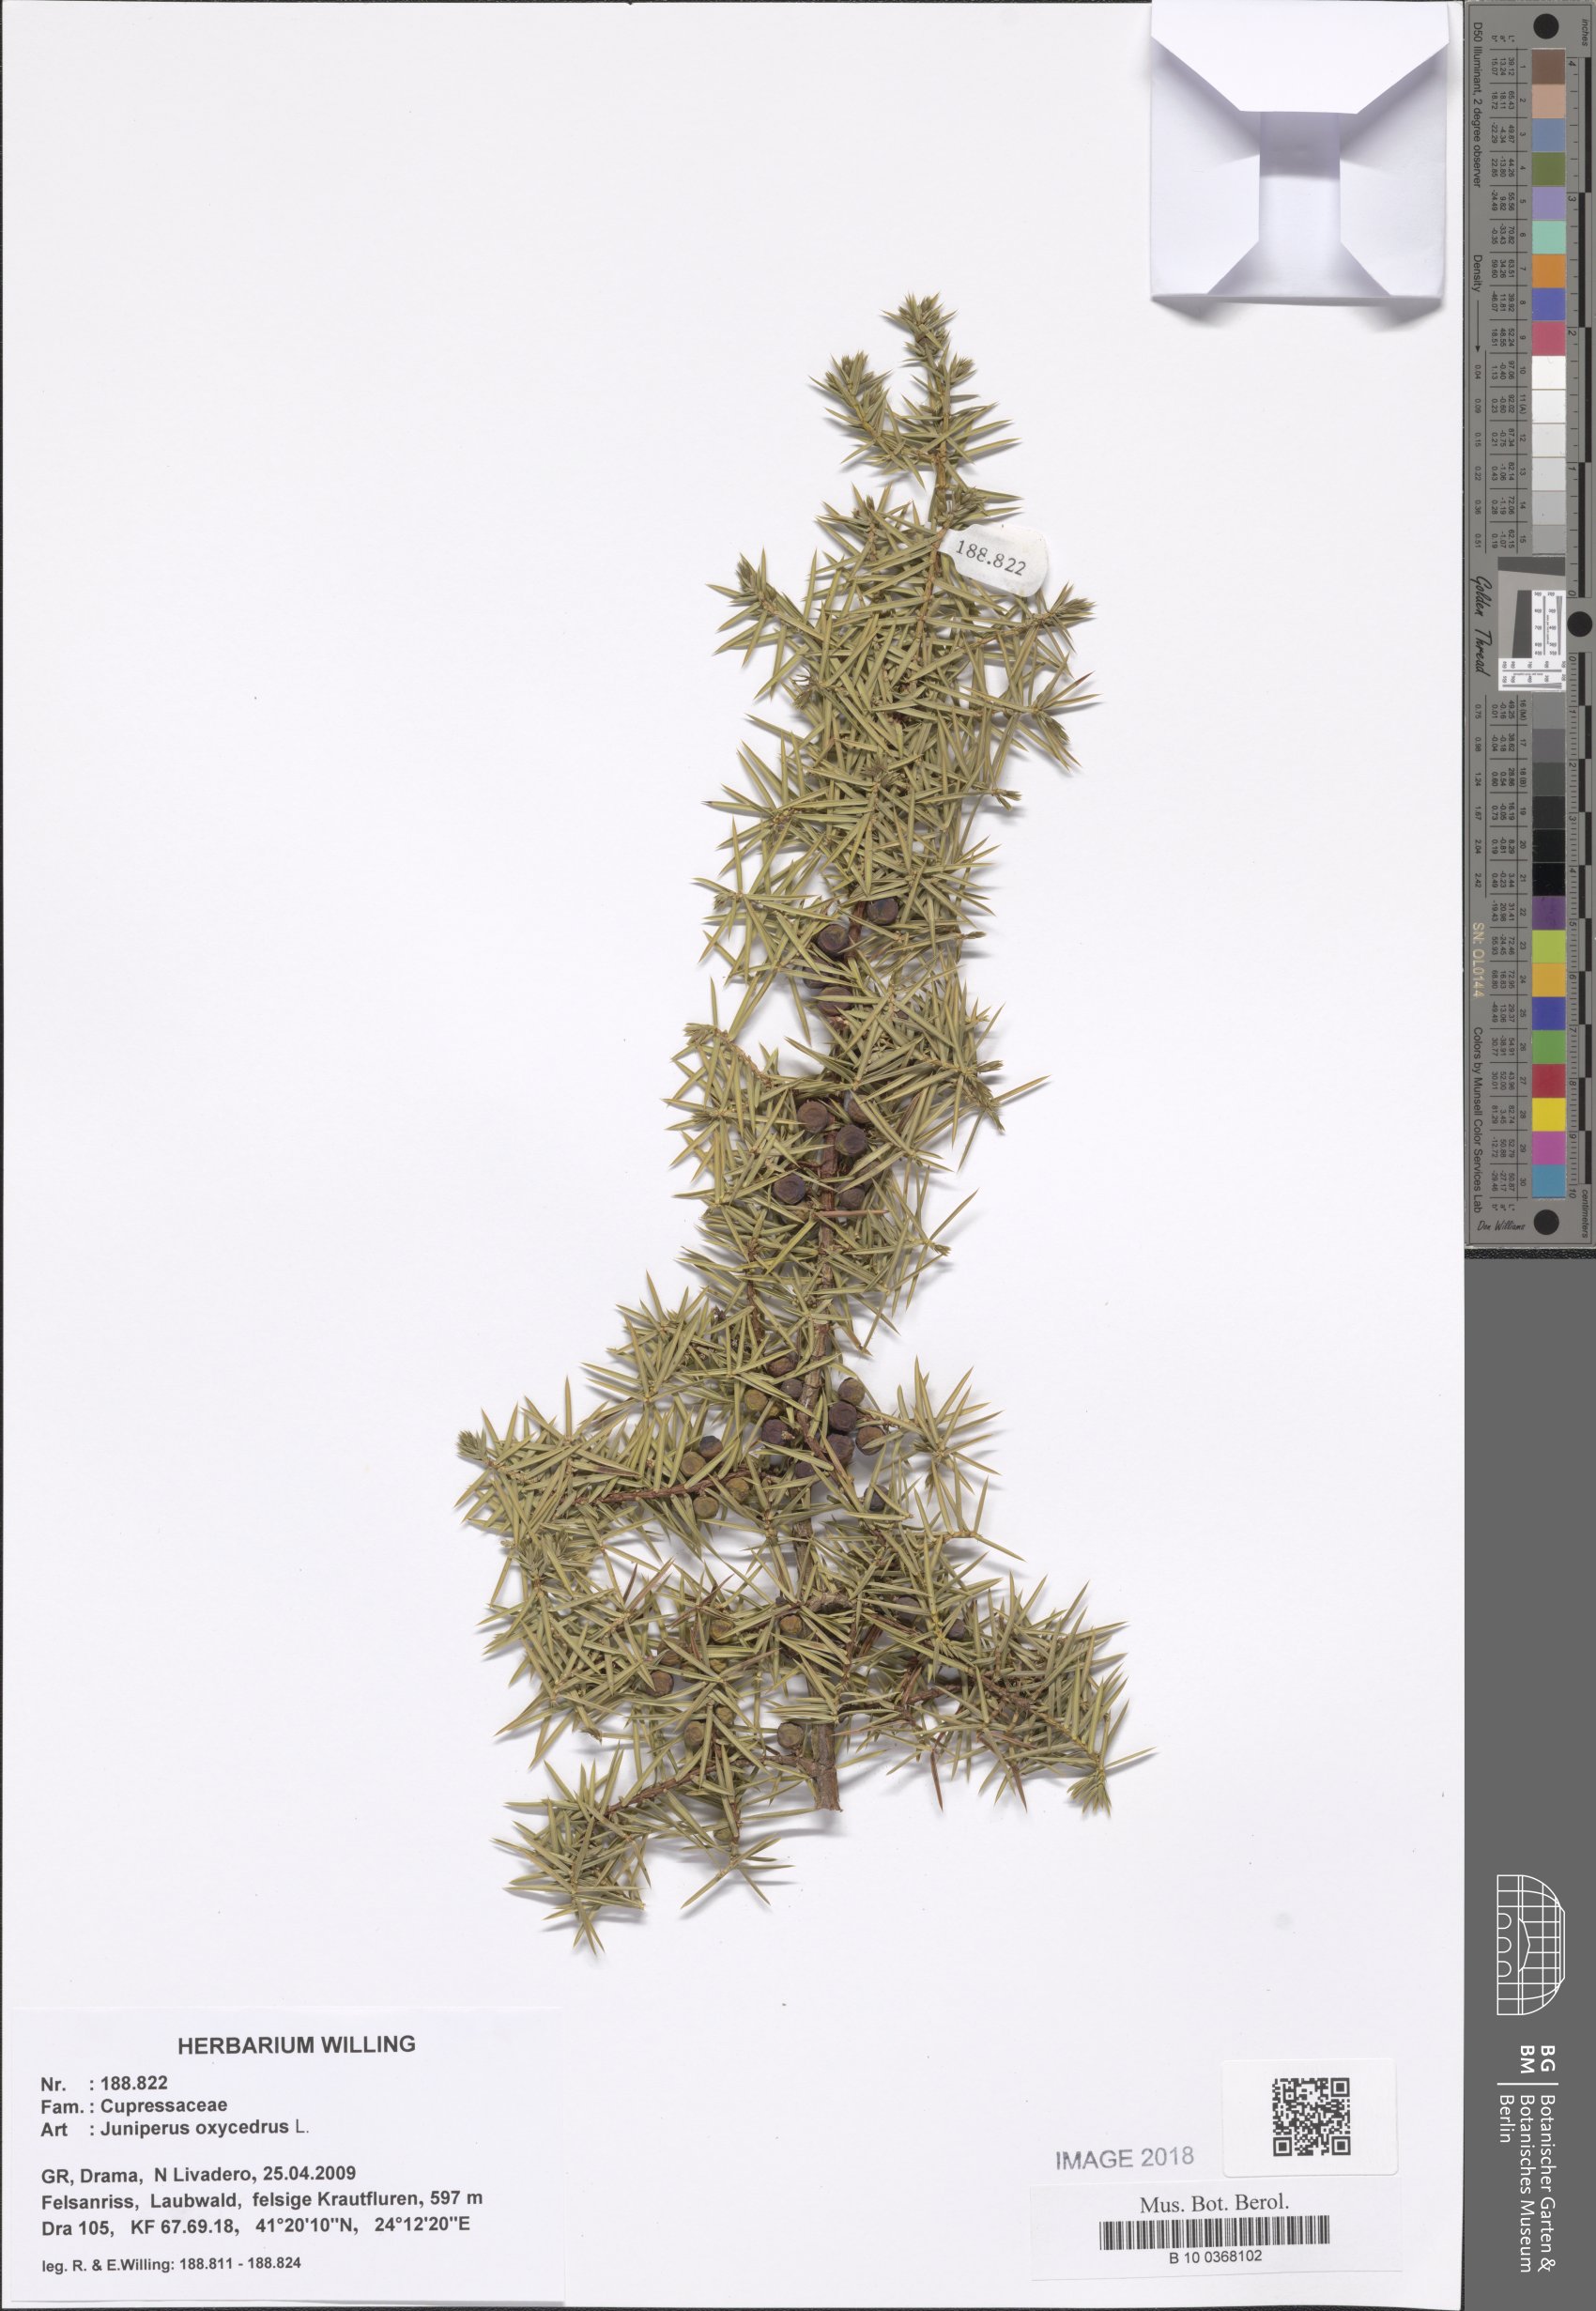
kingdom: Plantae
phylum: Tracheophyta
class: Pinopsida
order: Pinales
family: Cupressaceae
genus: Juniperus
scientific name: Juniperus
